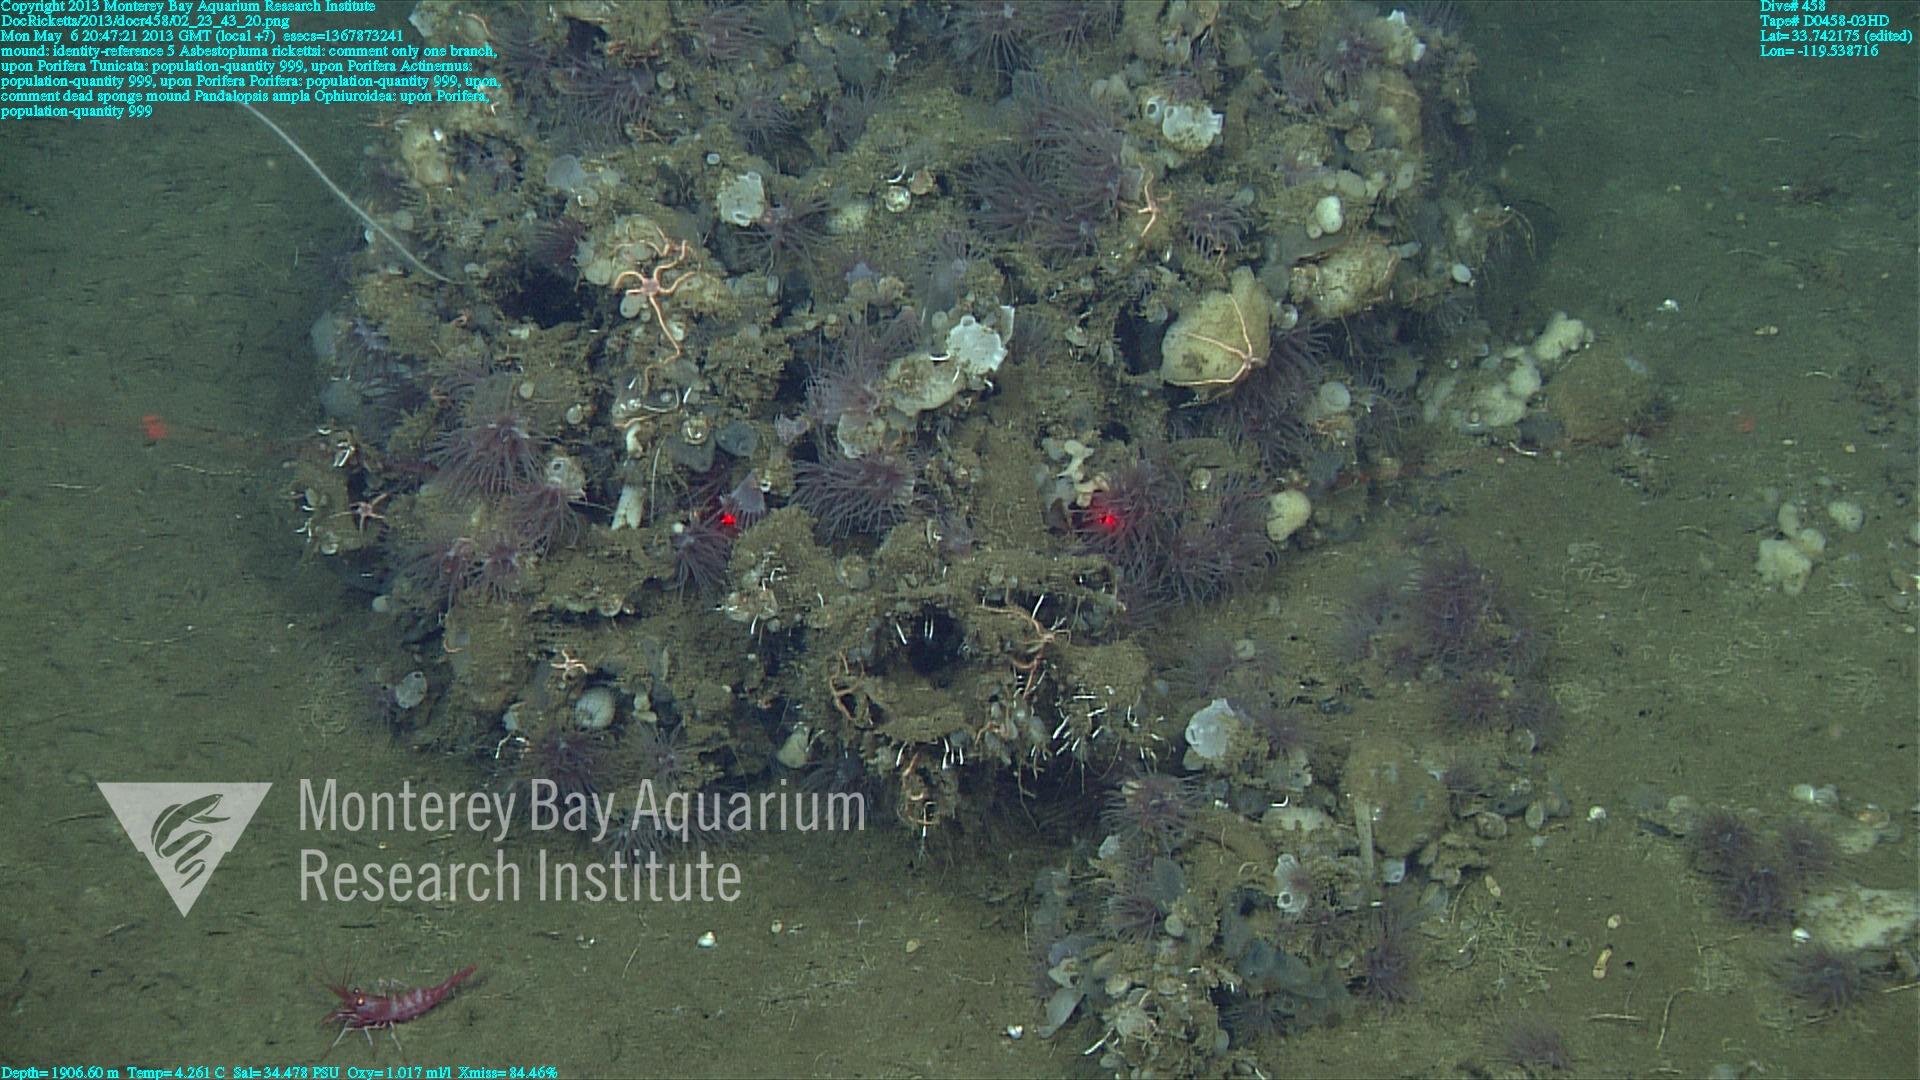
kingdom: Animalia
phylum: Porifera
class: Demospongiae
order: Poecilosclerida
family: Cladorhizidae
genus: Asbestopluma
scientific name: Asbestopluma rickettsi
